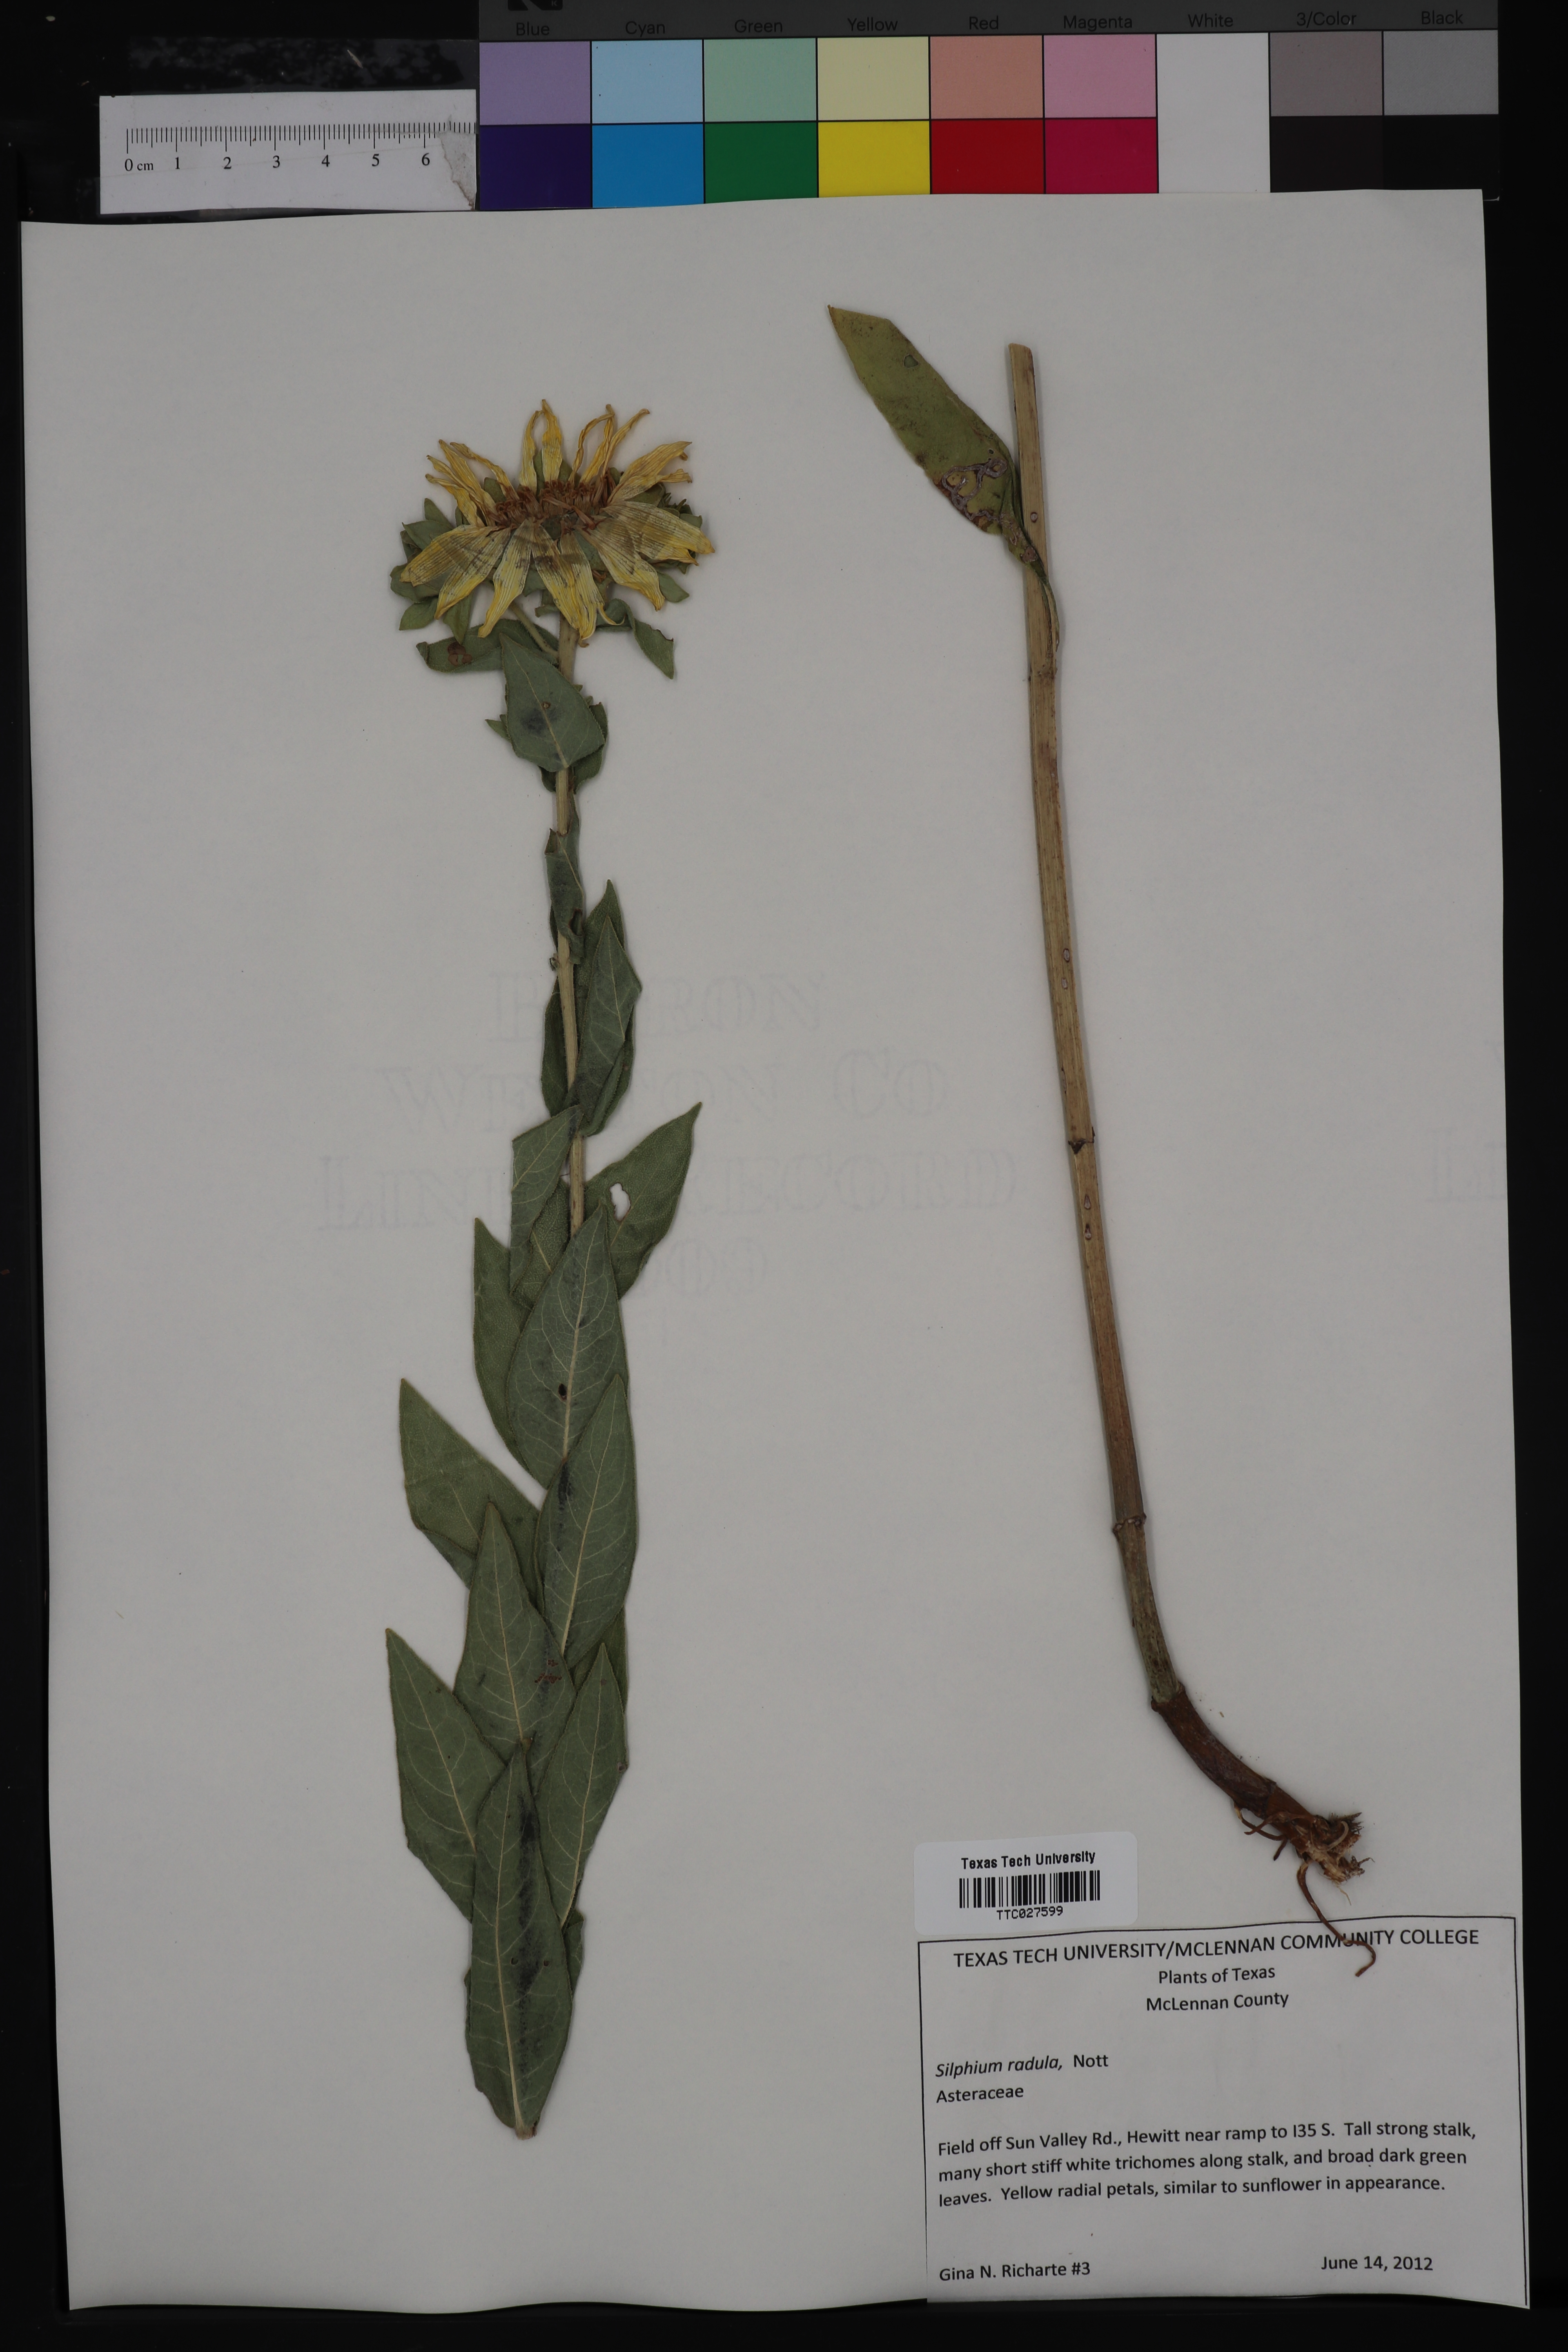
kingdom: Plantae
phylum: Tracheophyta
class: Magnoliopsida
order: Asterales
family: Asteraceae
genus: Silphium
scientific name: Silphium radula
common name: Roughleaf rosinweed
